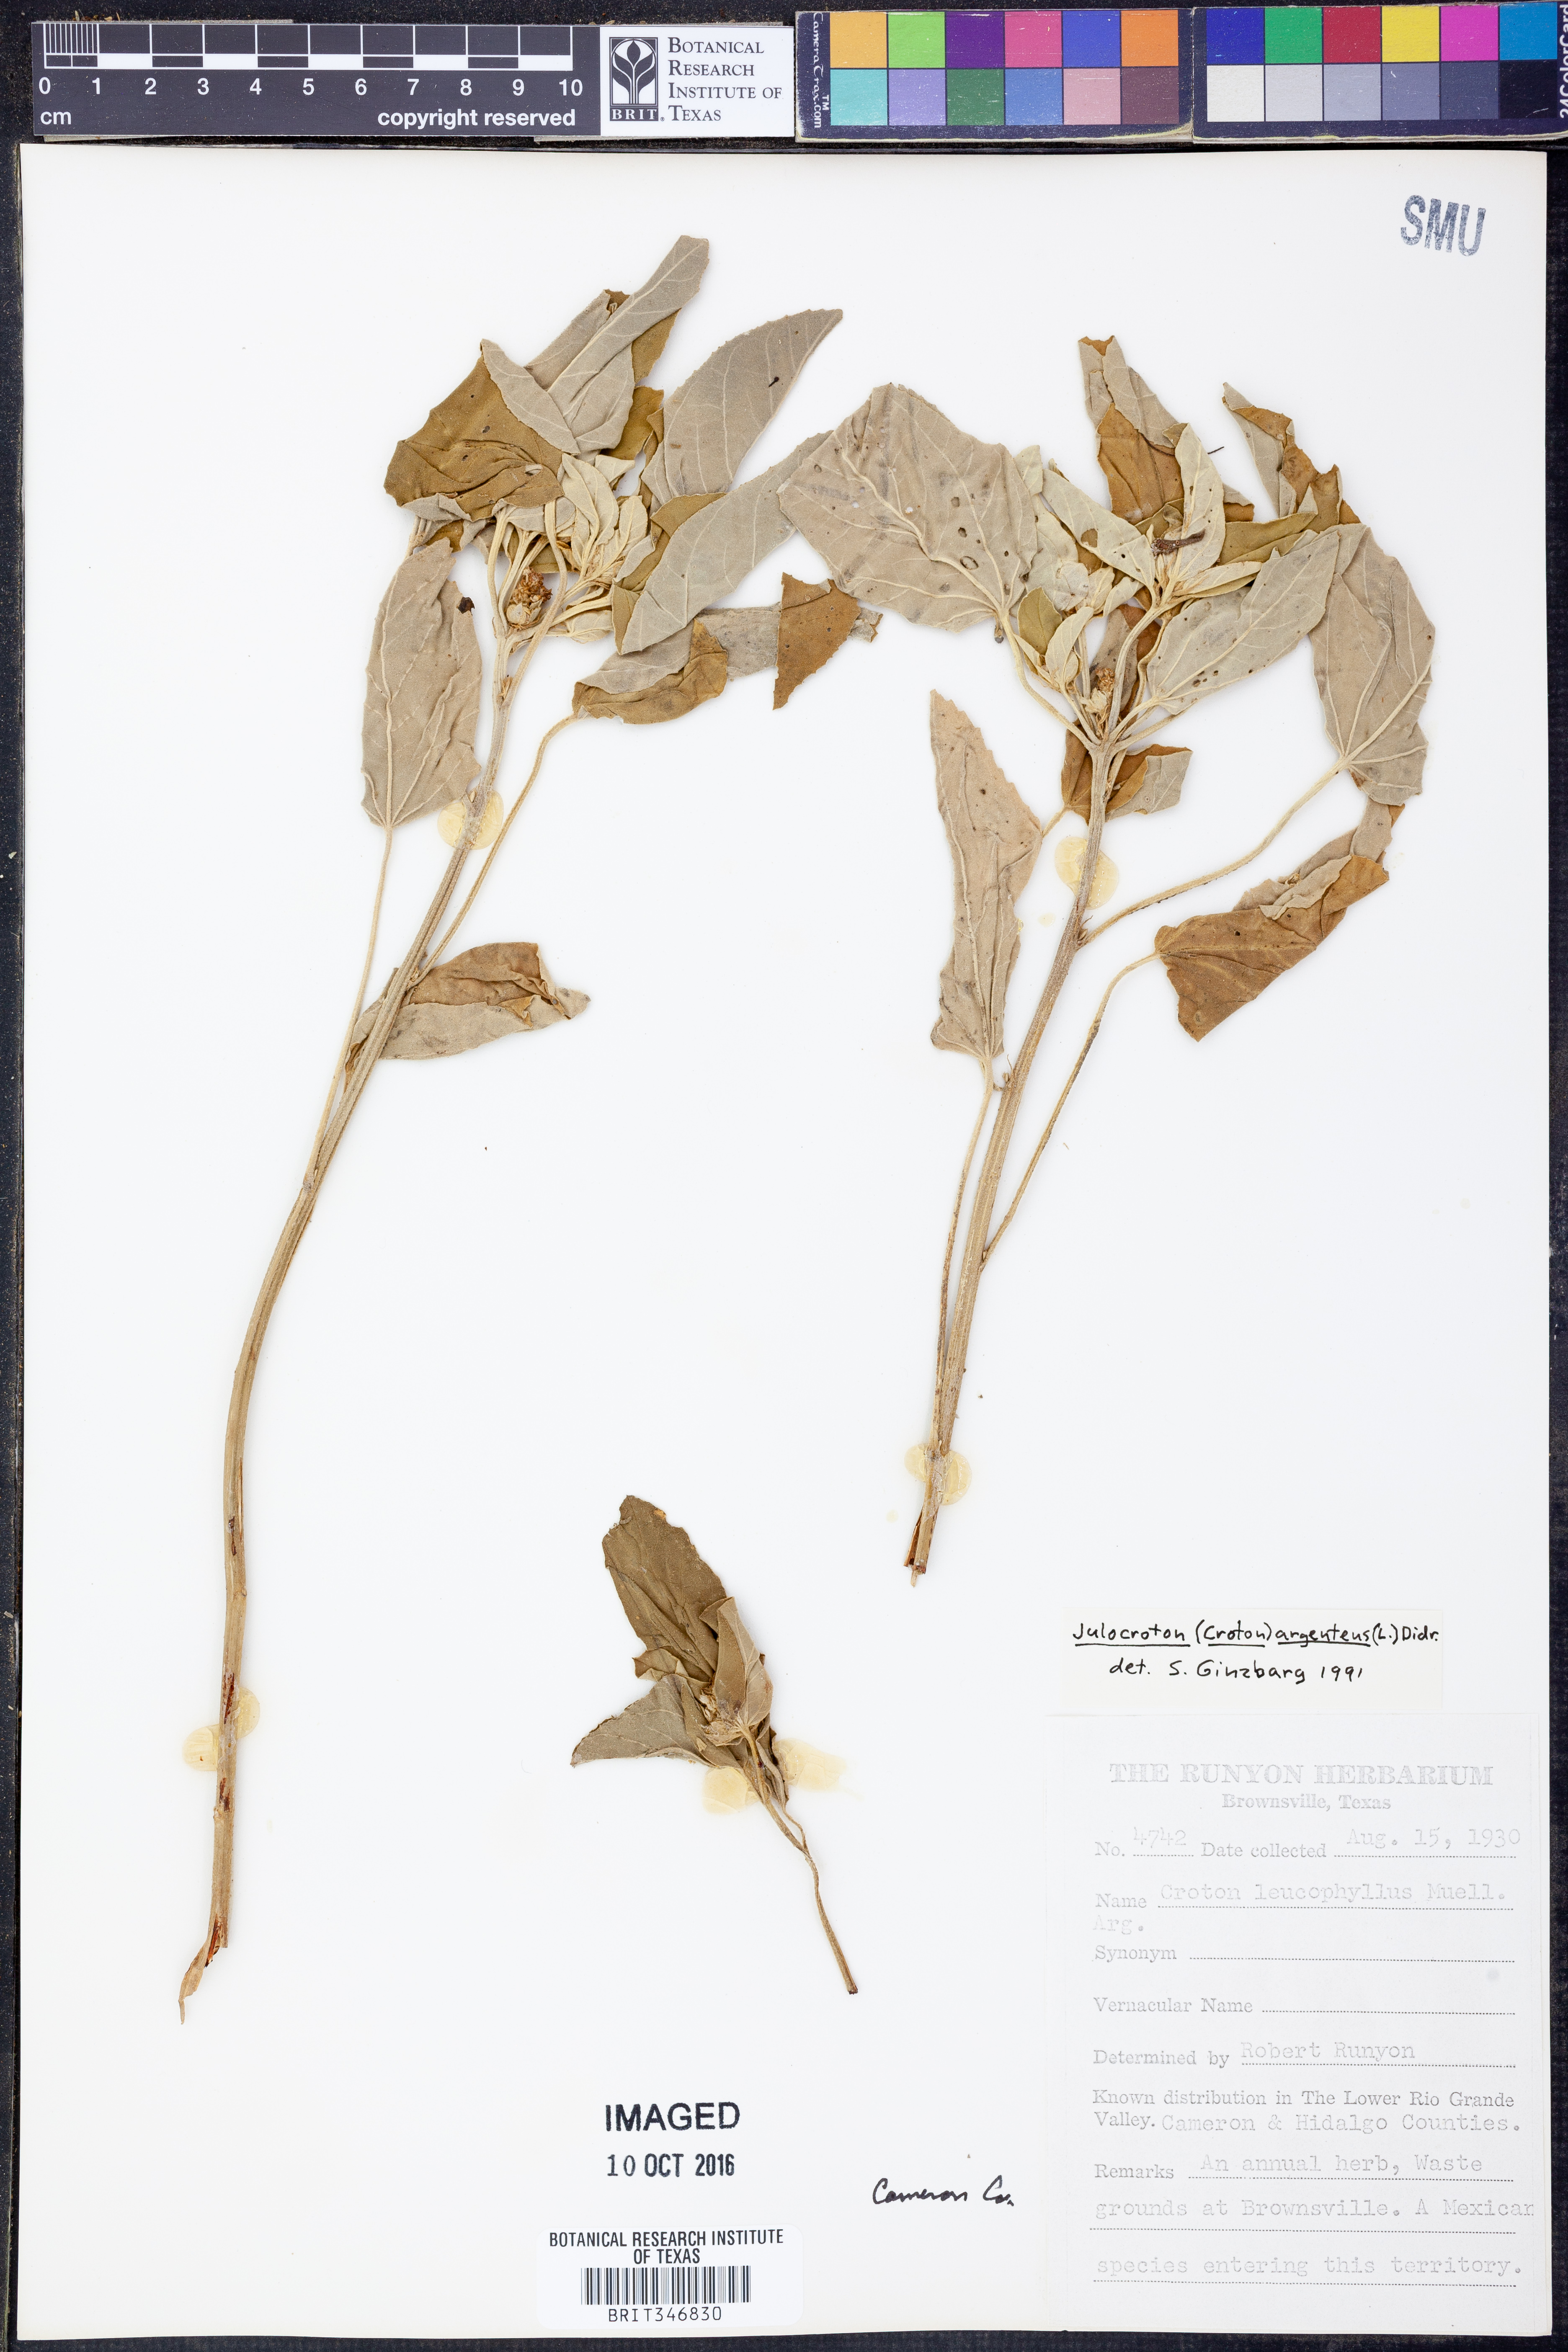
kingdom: Plantae
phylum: Tracheophyta
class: Magnoliopsida
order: Malpighiales
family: Euphorbiaceae
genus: Croton
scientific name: Croton argenteus
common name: Silver july croton
